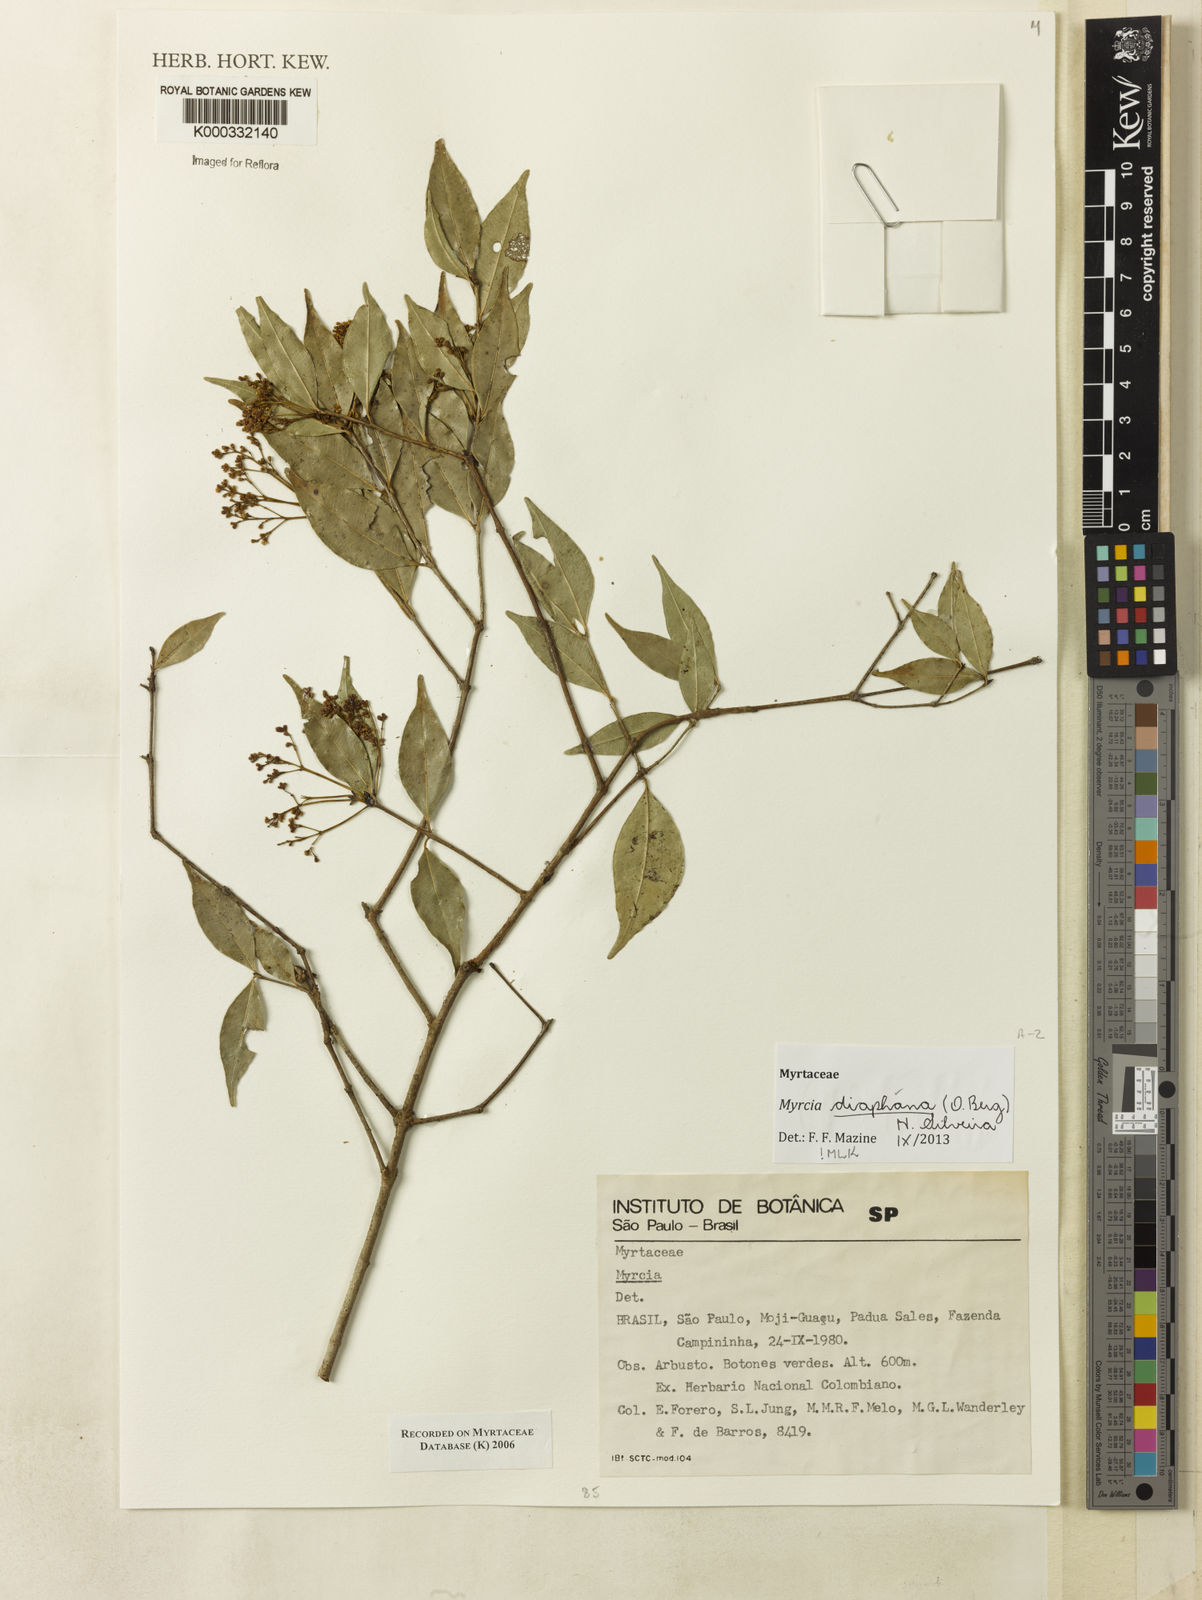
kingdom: Plantae
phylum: Tracheophyta
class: Magnoliopsida
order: Myrtales
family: Myrtaceae
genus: Myrcia
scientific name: Myrcia
